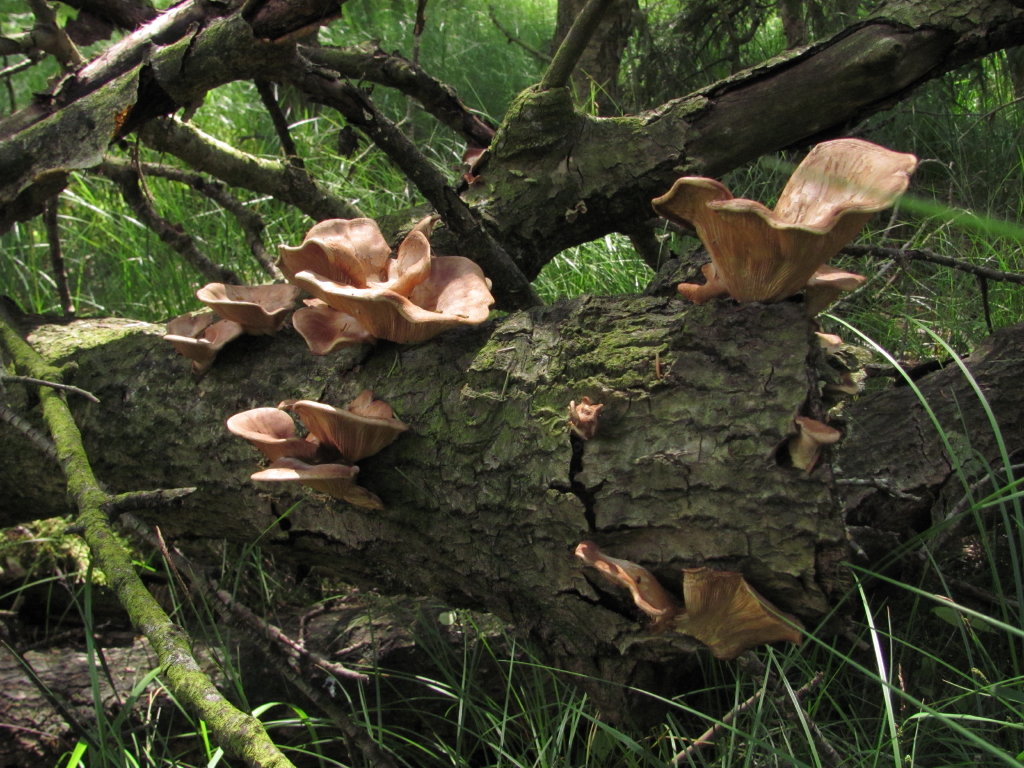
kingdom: Fungi
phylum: Basidiomycota
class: Agaricomycetes
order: Polyporales
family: Panaceae
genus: Panus
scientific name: Panus conchatus
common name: filtstokket læderhat
